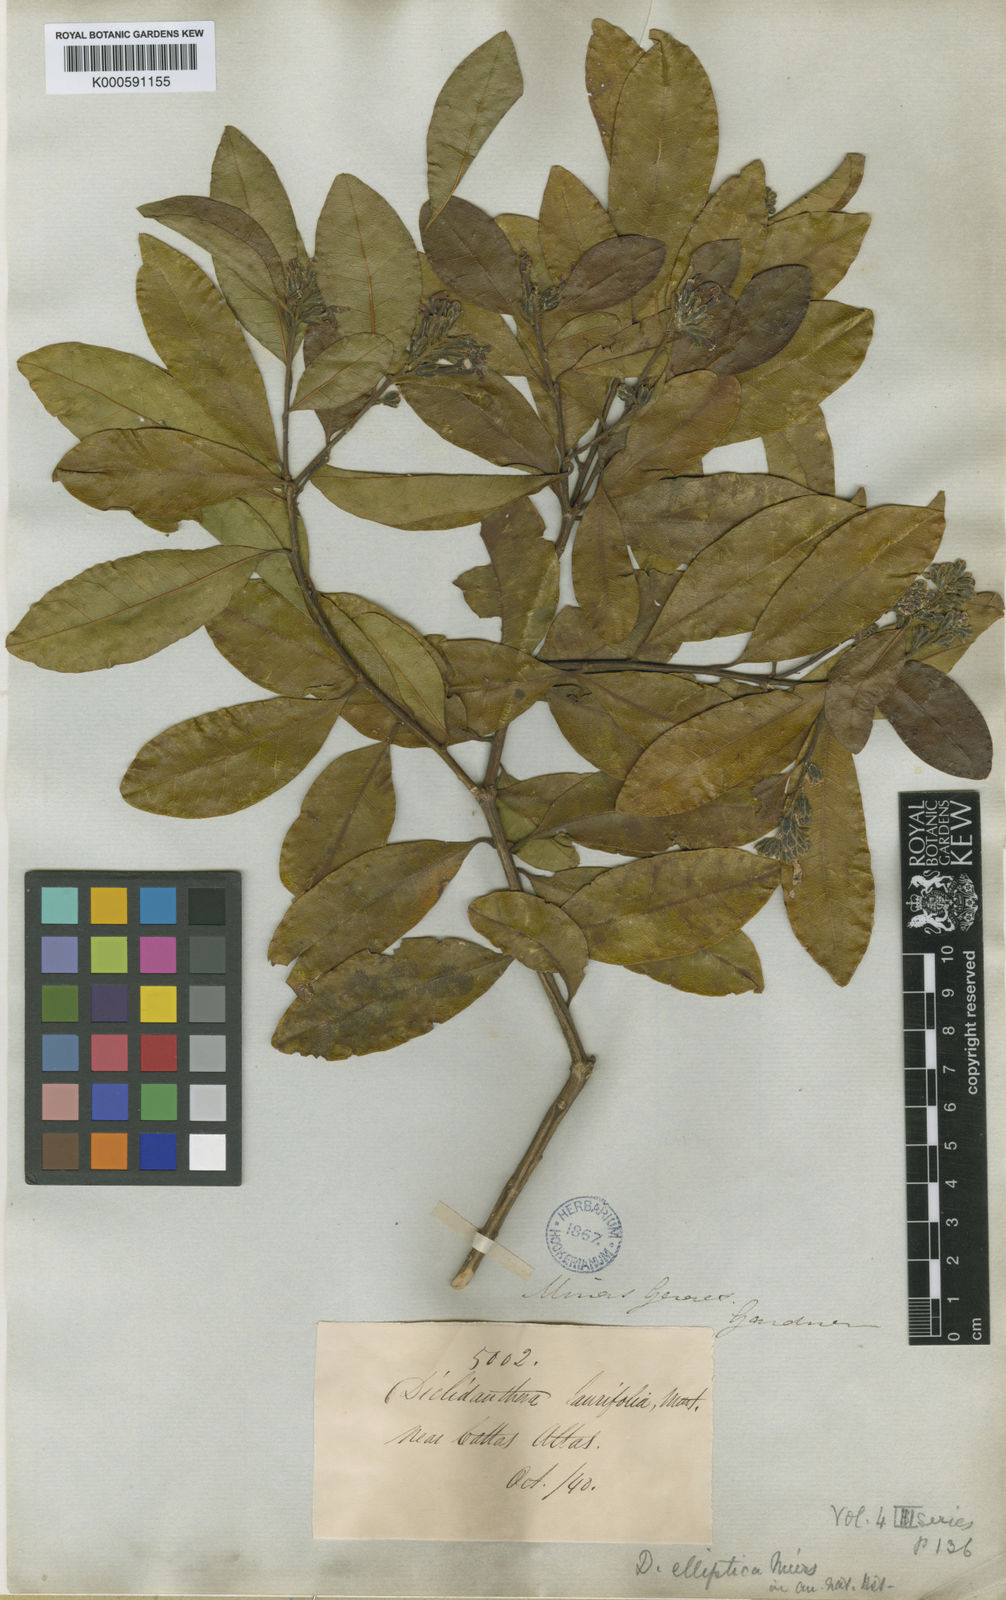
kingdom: Plantae
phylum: Tracheophyta
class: Magnoliopsida
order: Fabales
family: Polygalaceae
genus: Diclidanthera
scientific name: Diclidanthera laurifolia
